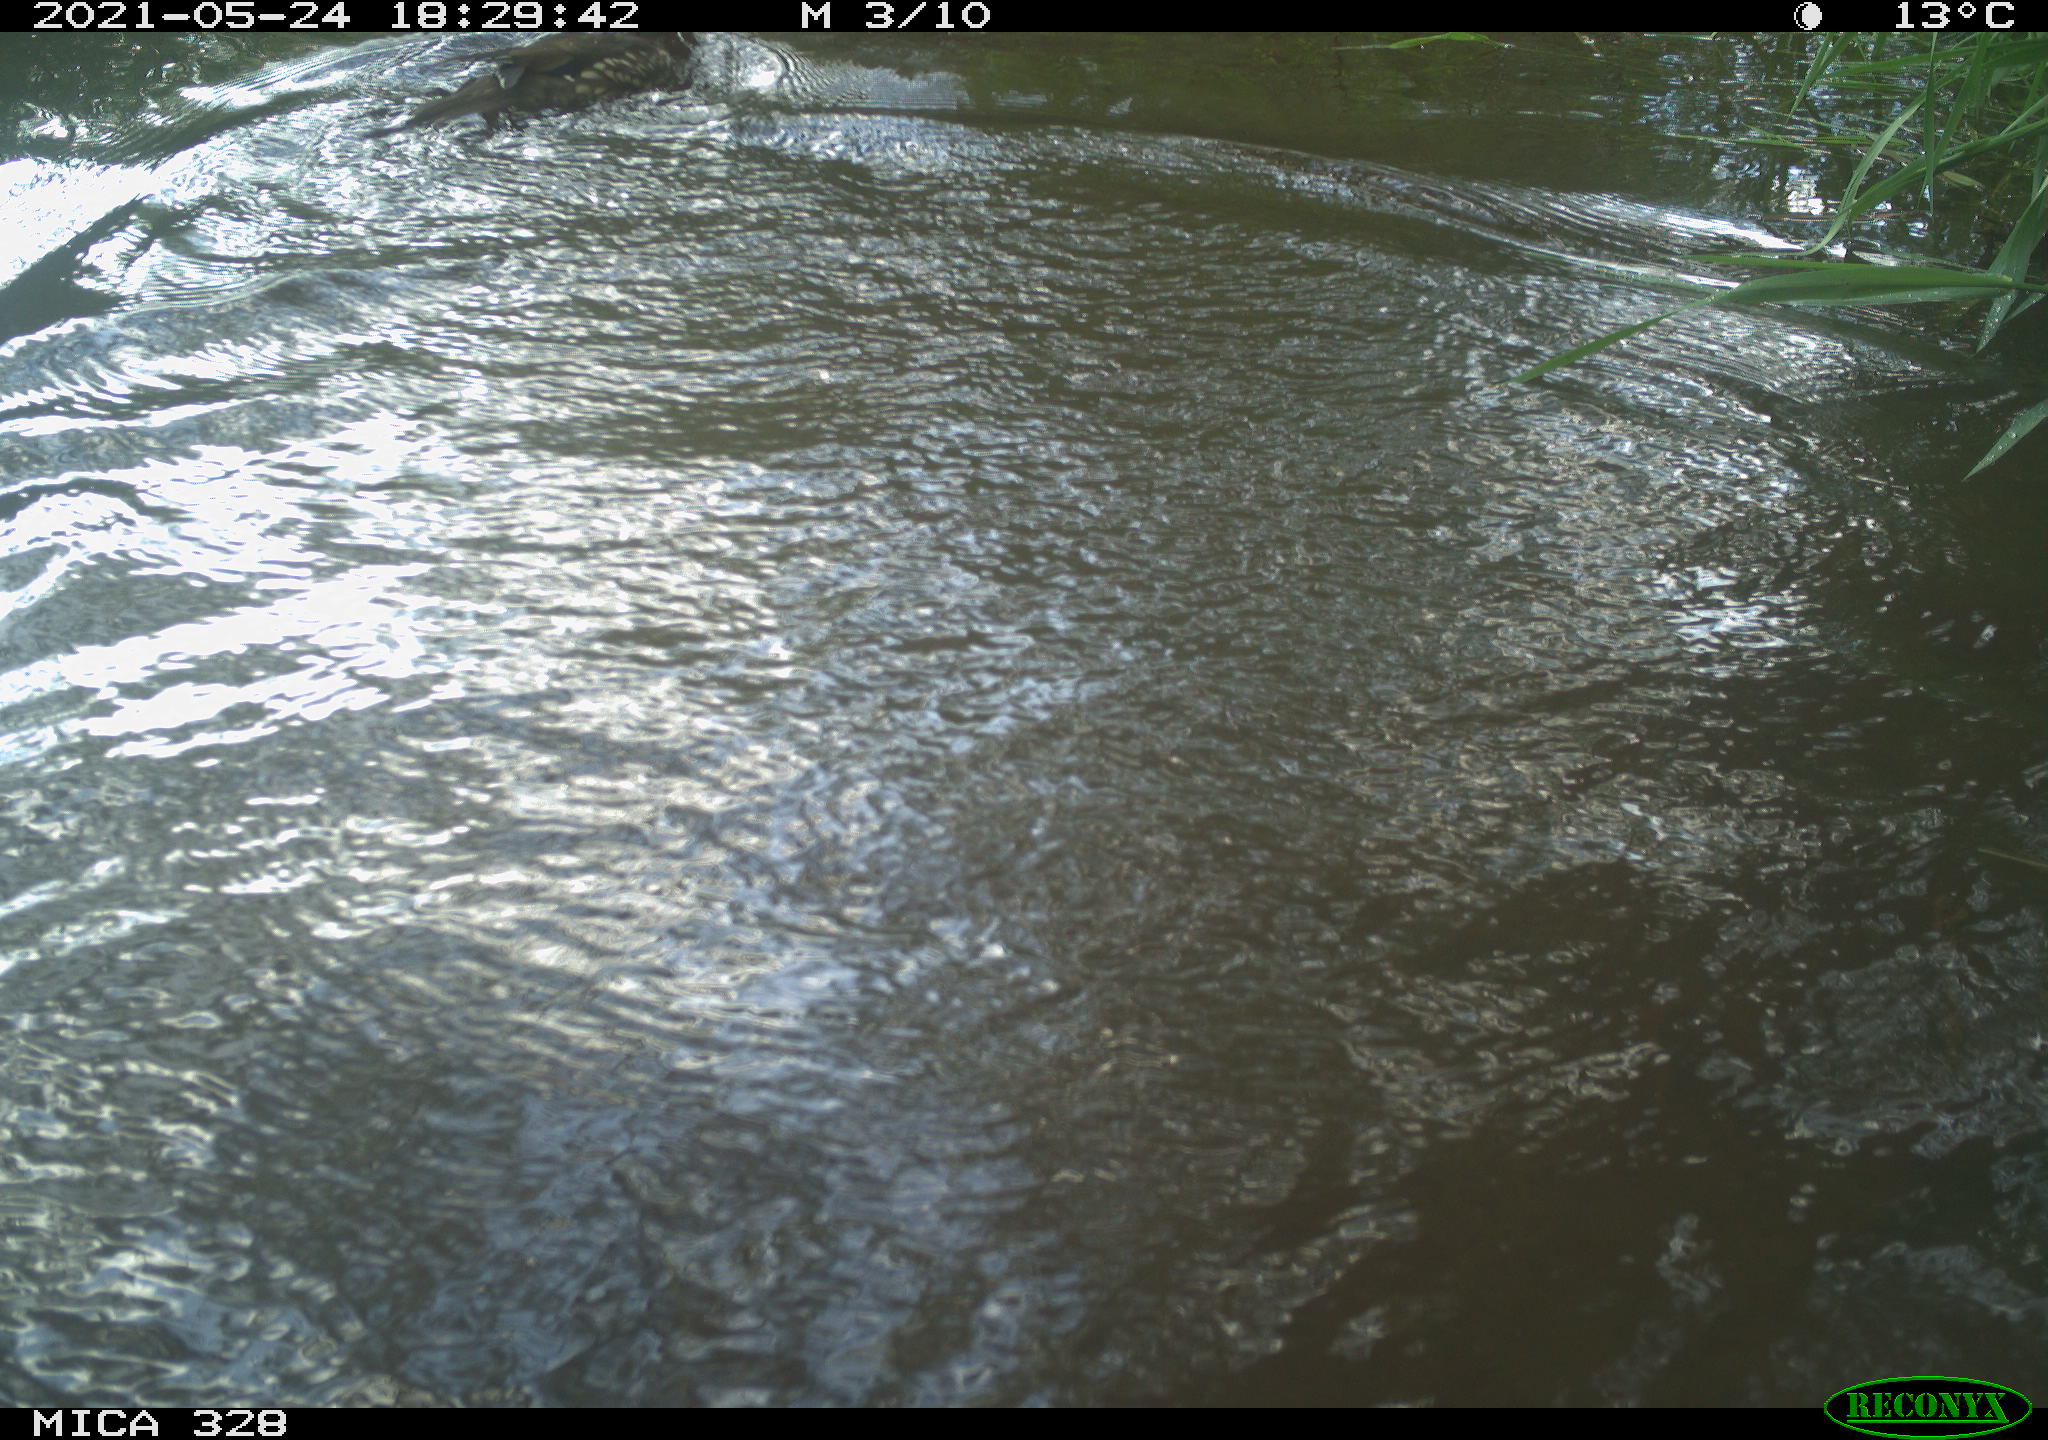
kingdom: Animalia
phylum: Chordata
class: Aves
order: Anseriformes
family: Anatidae
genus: Aix
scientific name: Aix galericulata
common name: Mandarin duck
